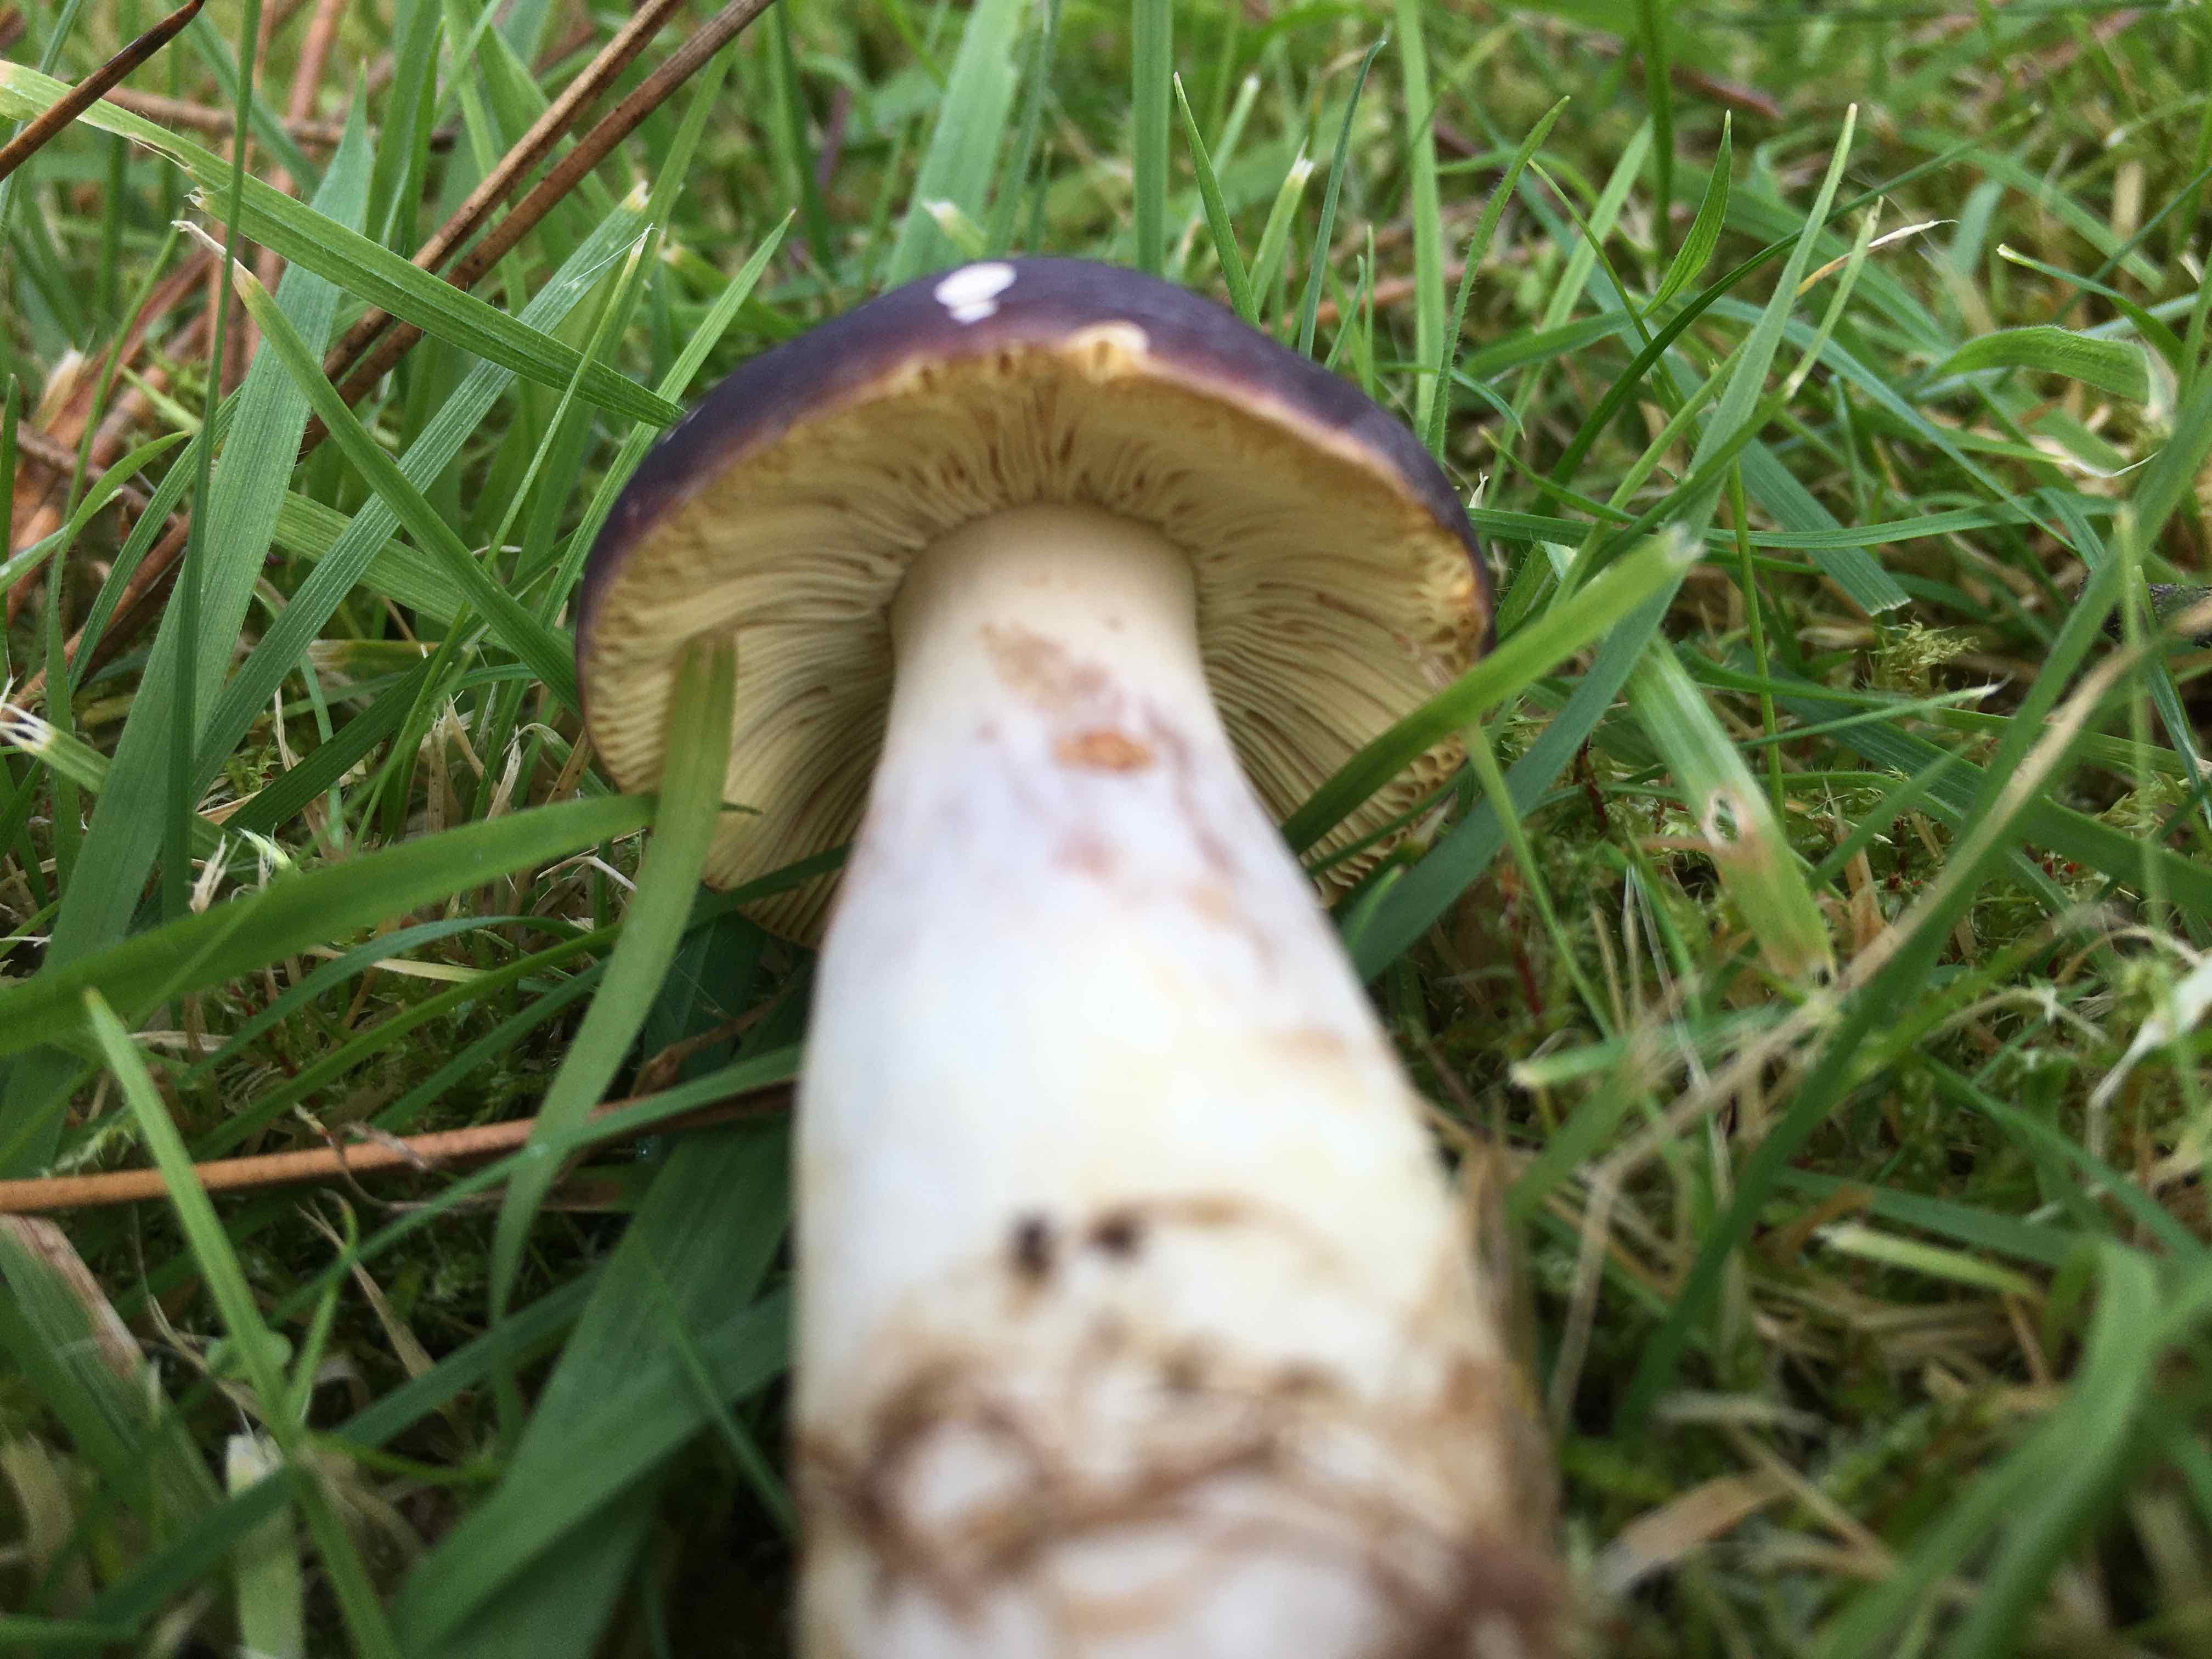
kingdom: Fungi
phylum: Basidiomycota
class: Agaricomycetes
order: Russulales
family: Russulaceae
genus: Russula
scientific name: Russula
